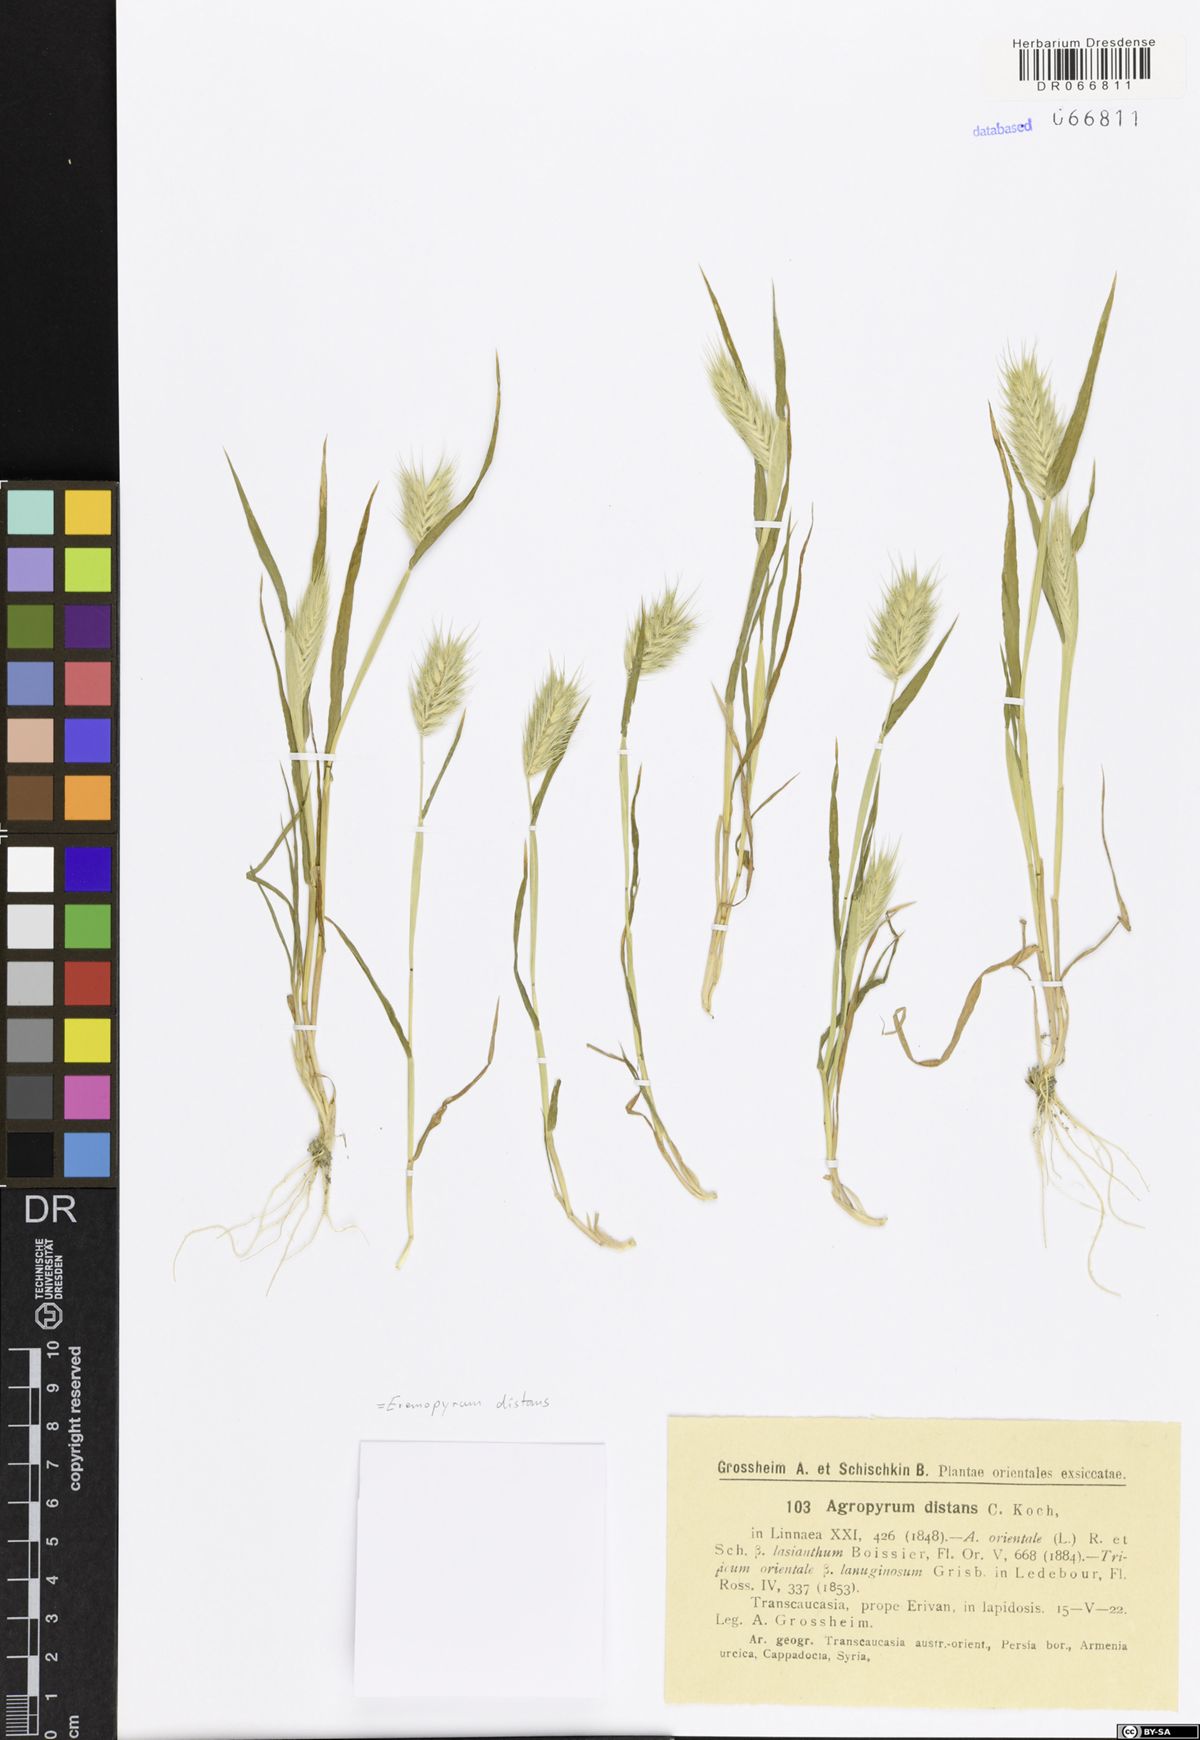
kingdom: Plantae
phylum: Tracheophyta
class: Liliopsida
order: Poales
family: Poaceae
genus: Eremopyrum
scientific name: Eremopyrum distans
